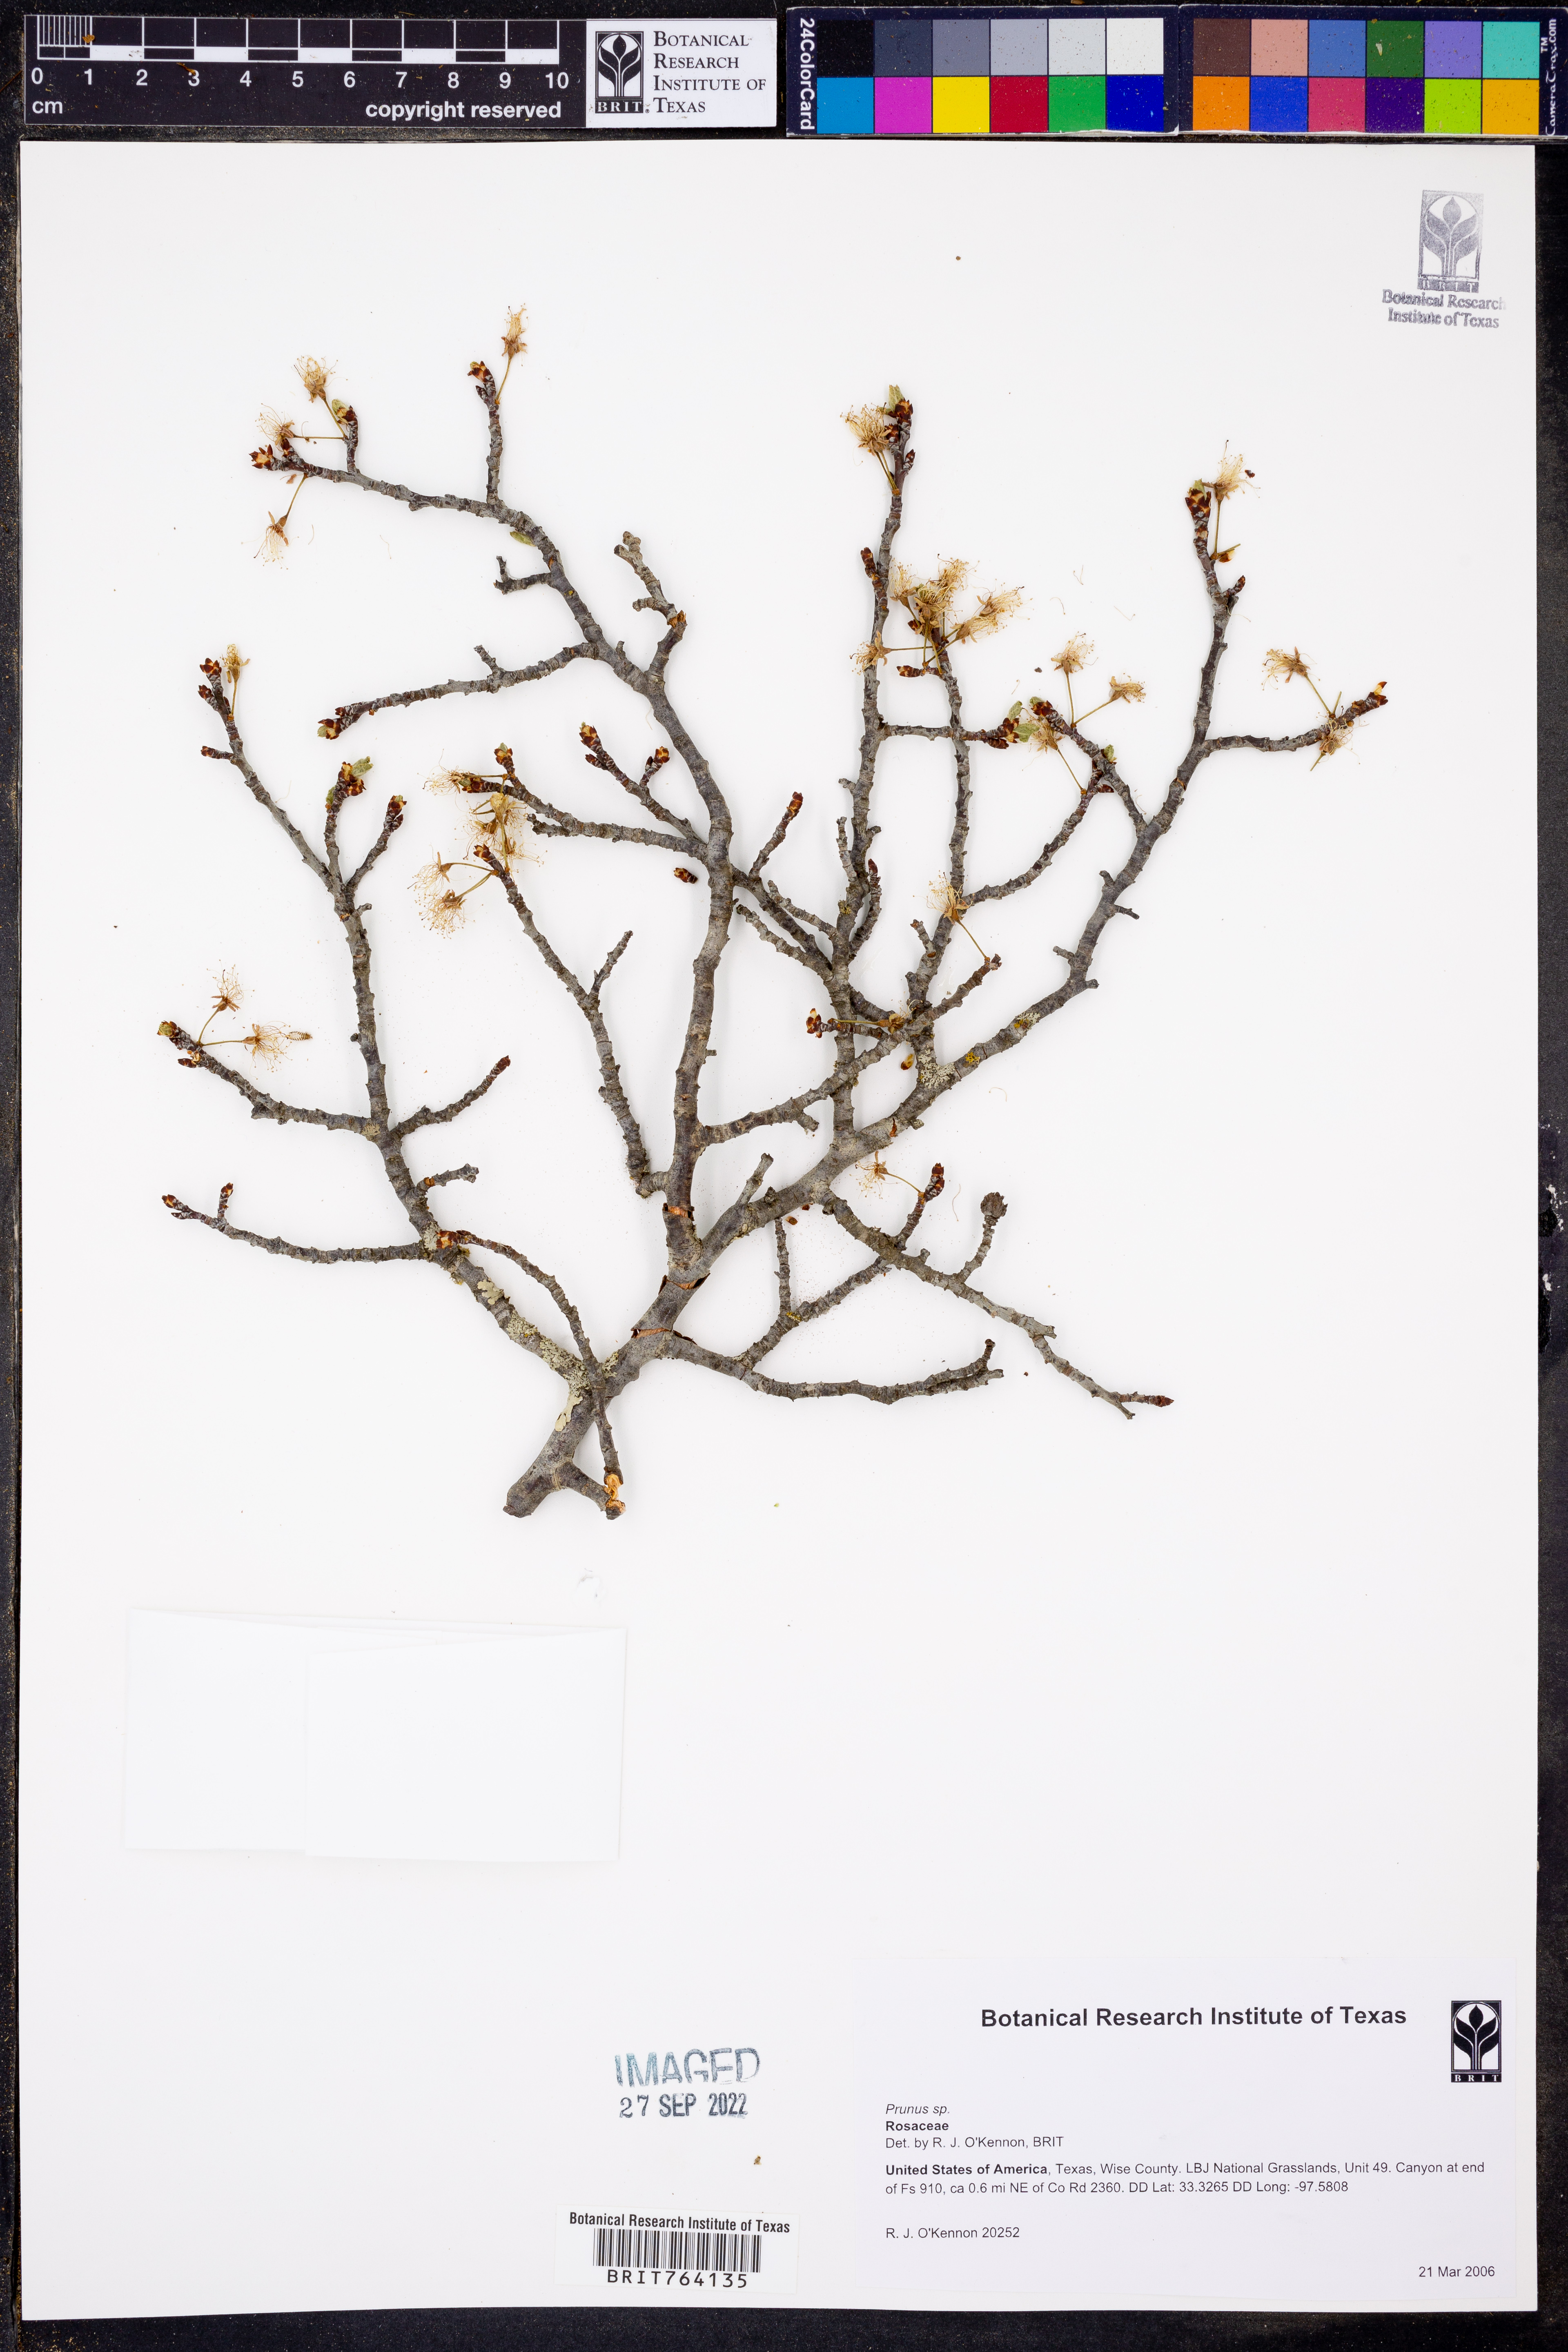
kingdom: Plantae
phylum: Tracheophyta
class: Magnoliopsida
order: Rosales
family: Rosaceae
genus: Prunus
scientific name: Prunus
